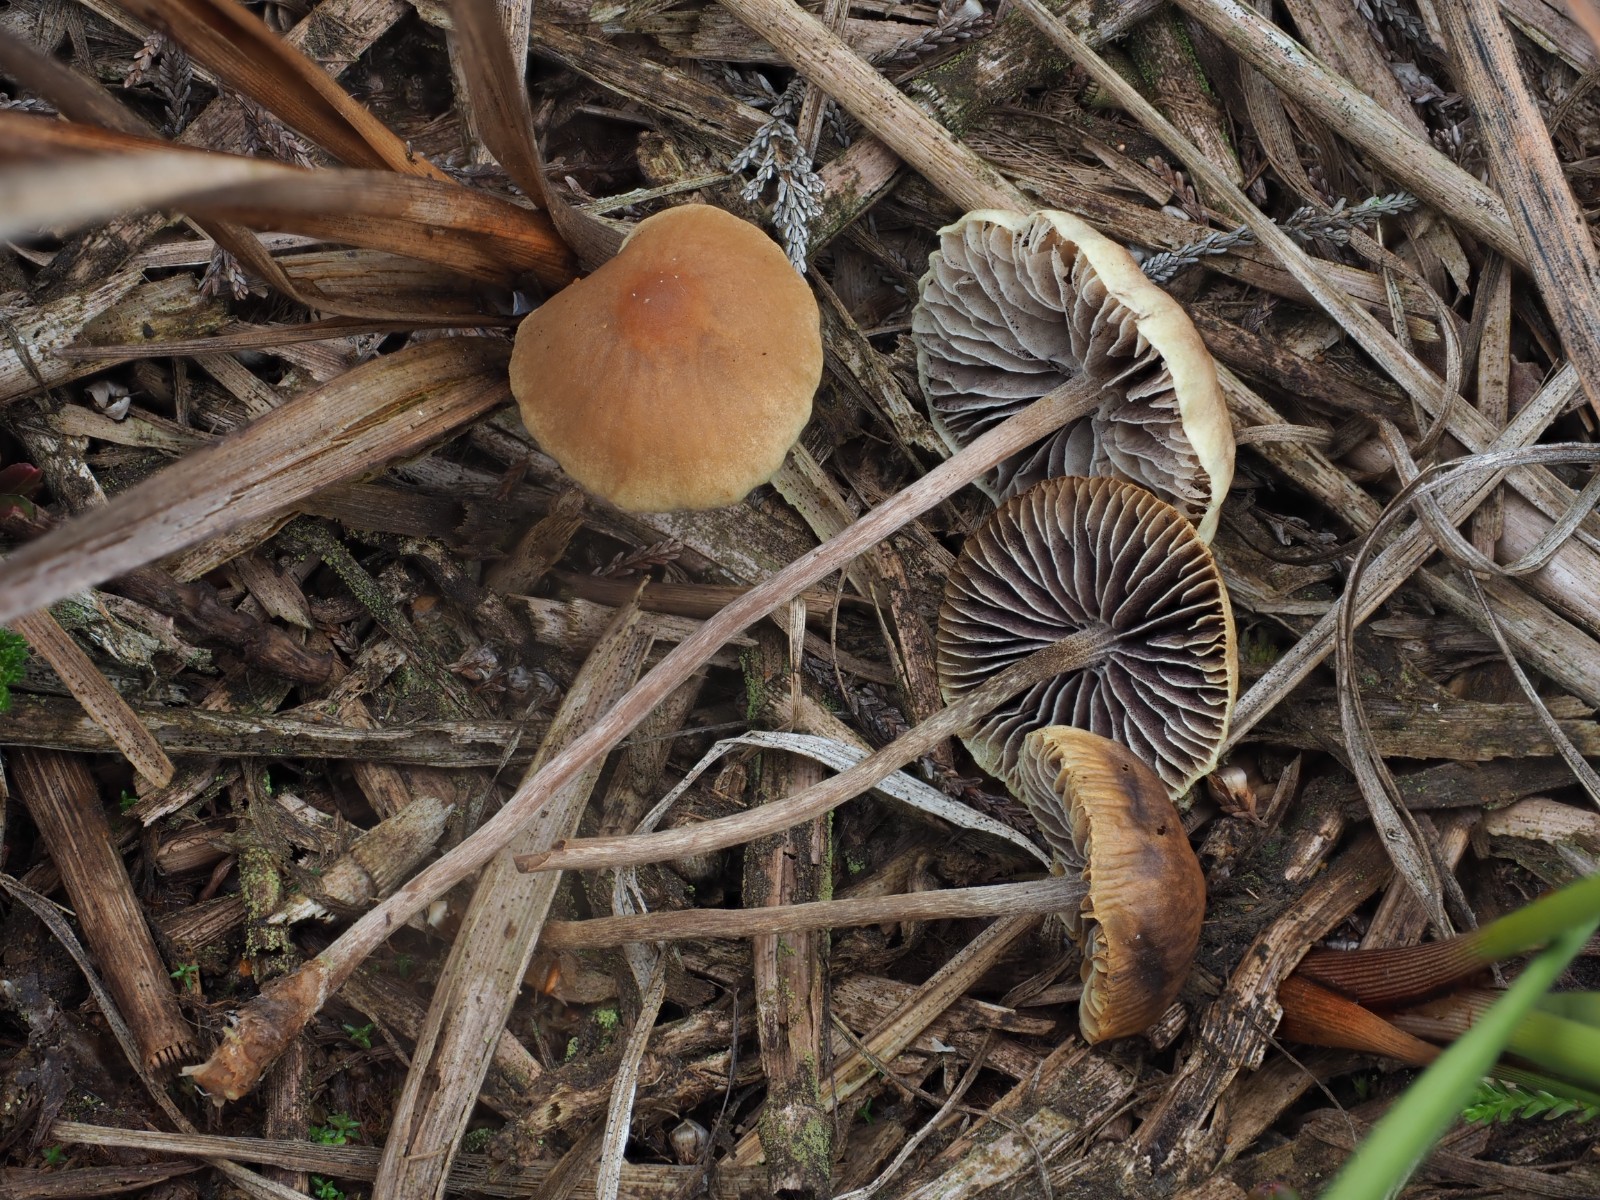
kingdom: Fungi
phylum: Basidiomycota
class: Agaricomycetes
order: Agaricales
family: Strophariaceae
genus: Bogbodia
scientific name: Bogbodia uda
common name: tørve-svovlhat
